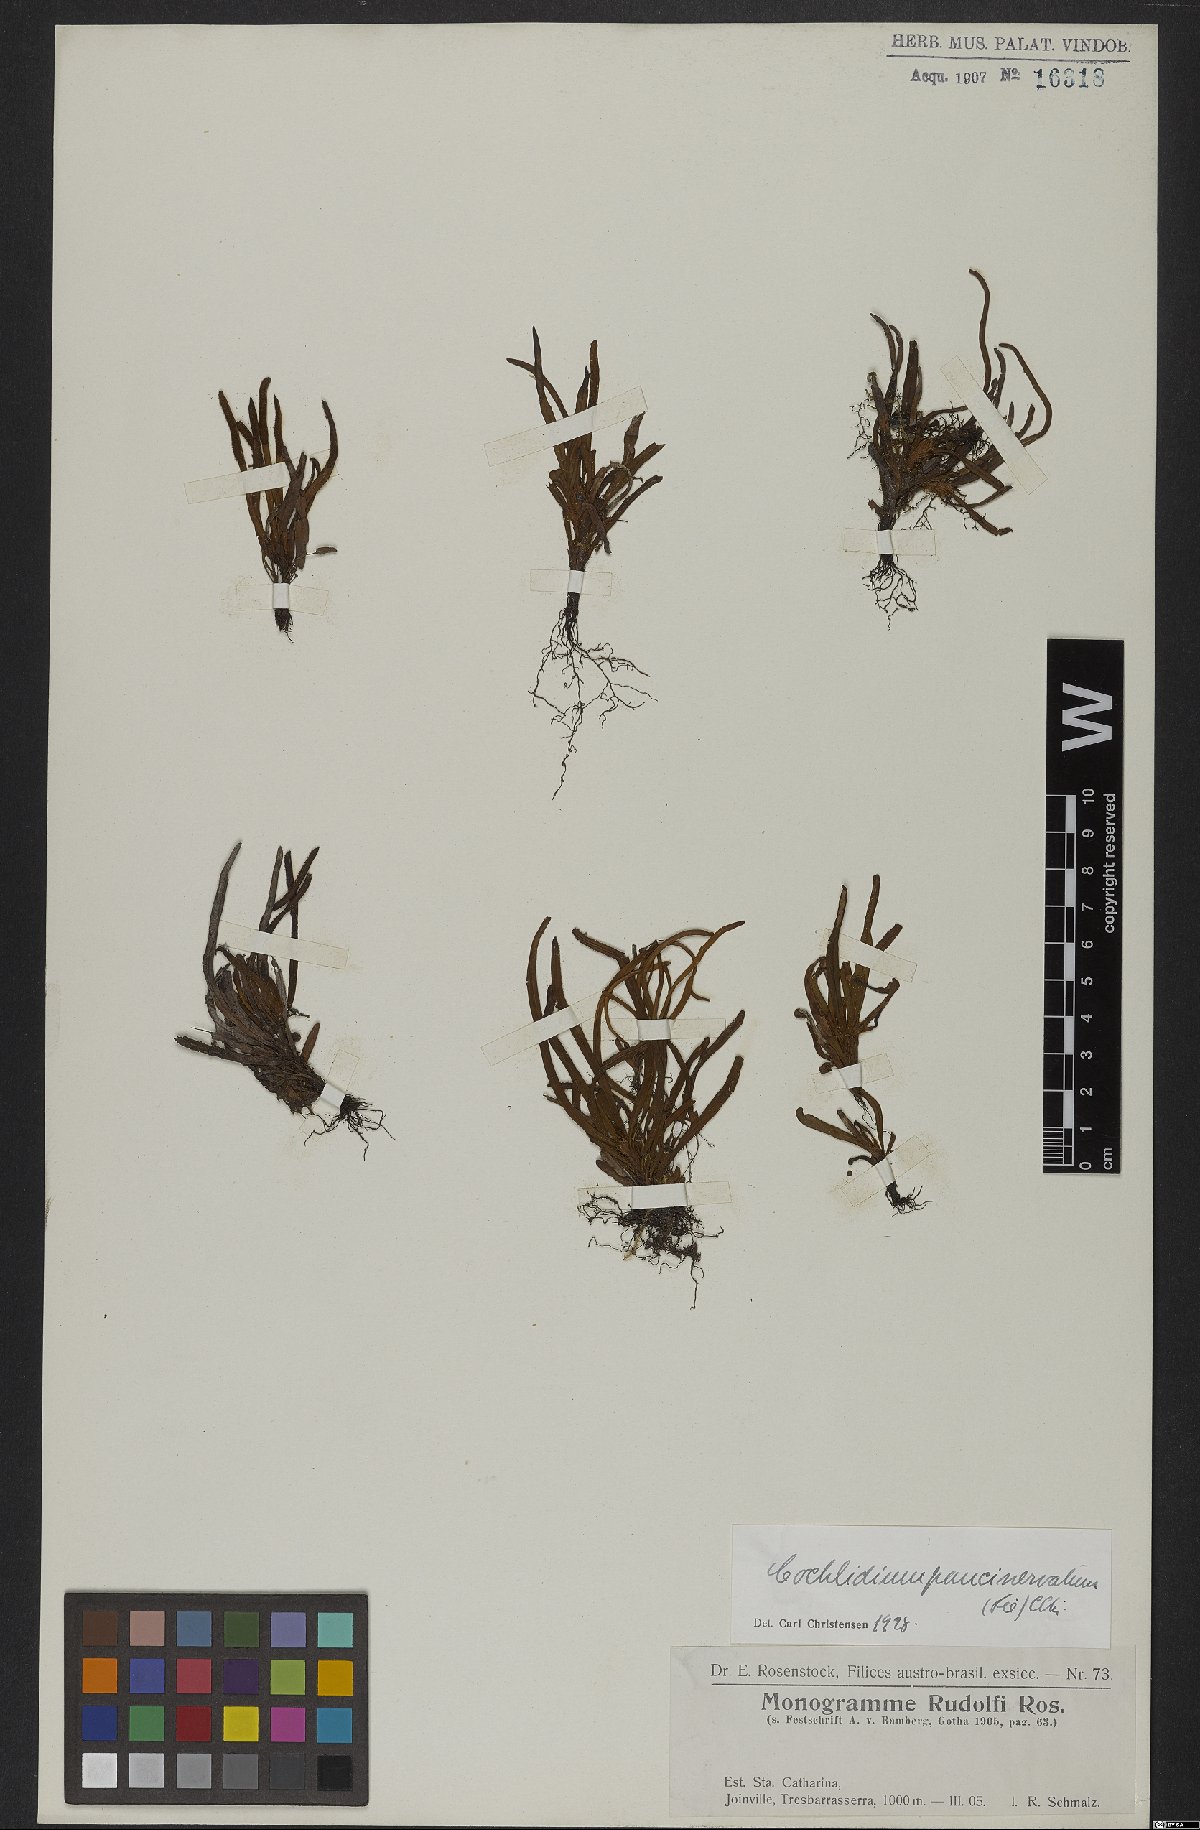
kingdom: Plantae
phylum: Tracheophyta
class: Polypodiopsida
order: Polypodiales
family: Polypodiaceae
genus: Cochlidium
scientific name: Cochlidium punctatum
